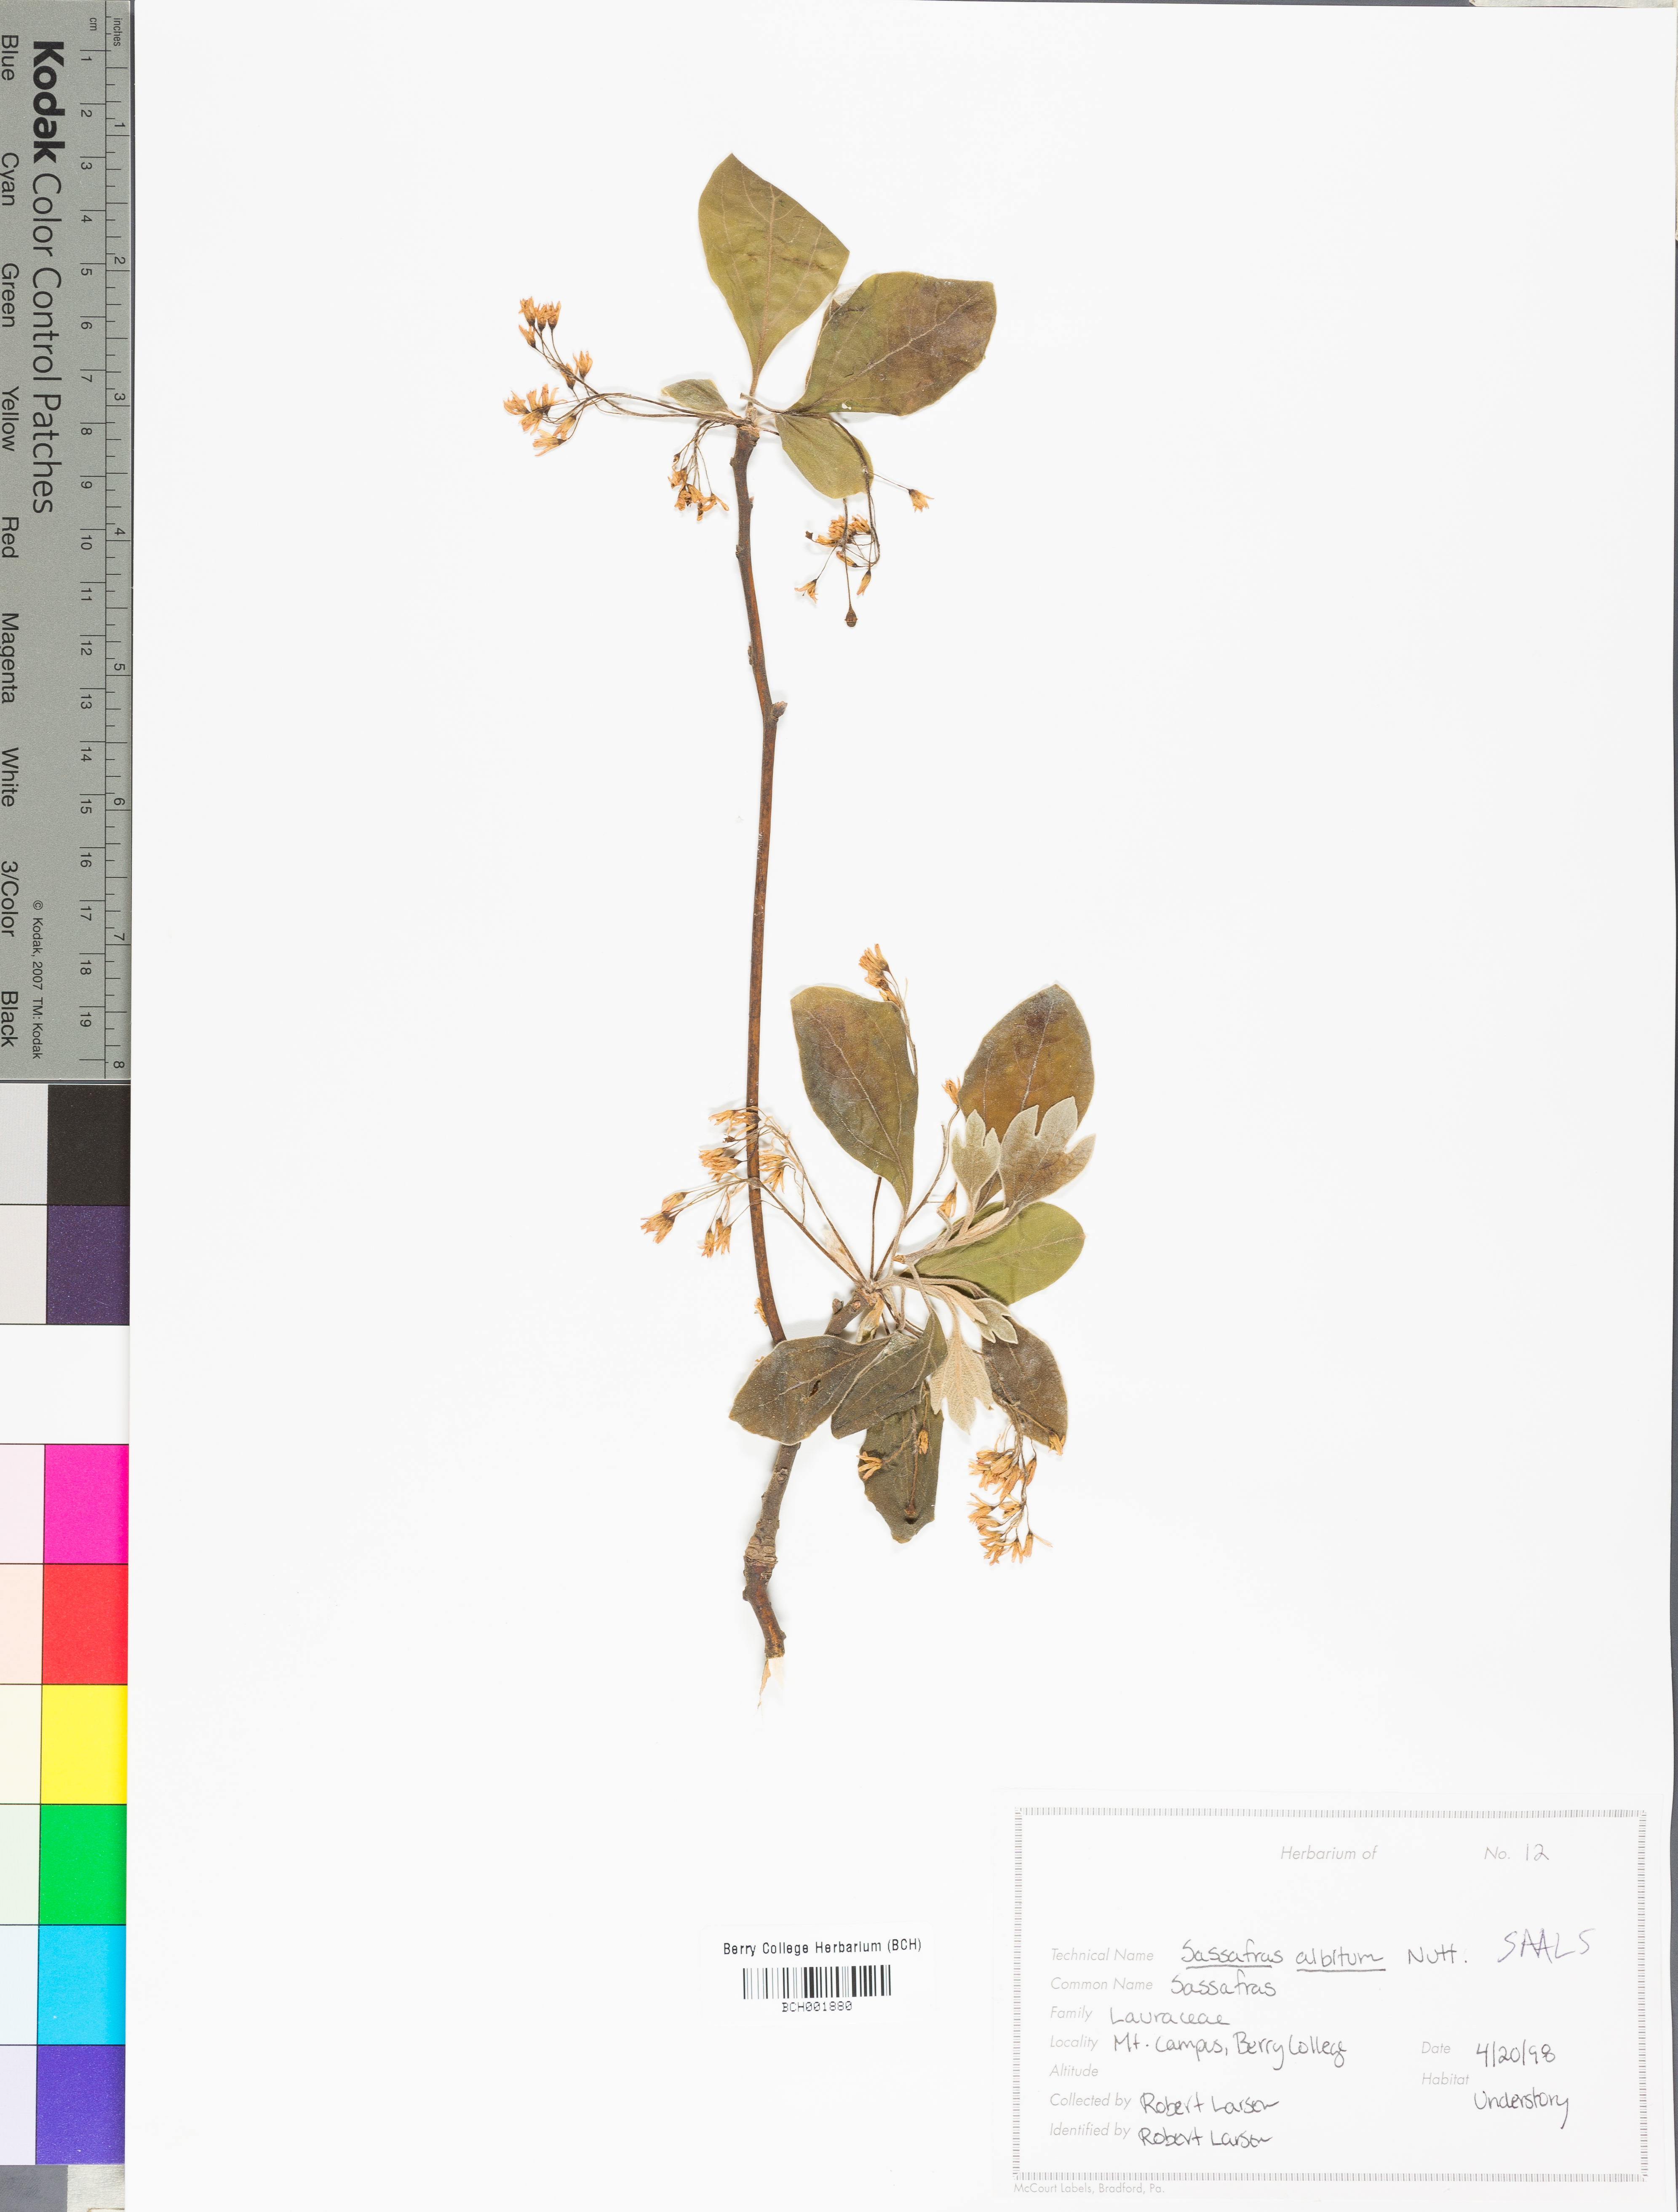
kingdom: Plantae
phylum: Tracheophyta
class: Magnoliopsida
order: Laurales
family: Lauraceae
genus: Sassafras
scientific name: Sassafras albidum
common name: Sassafras
